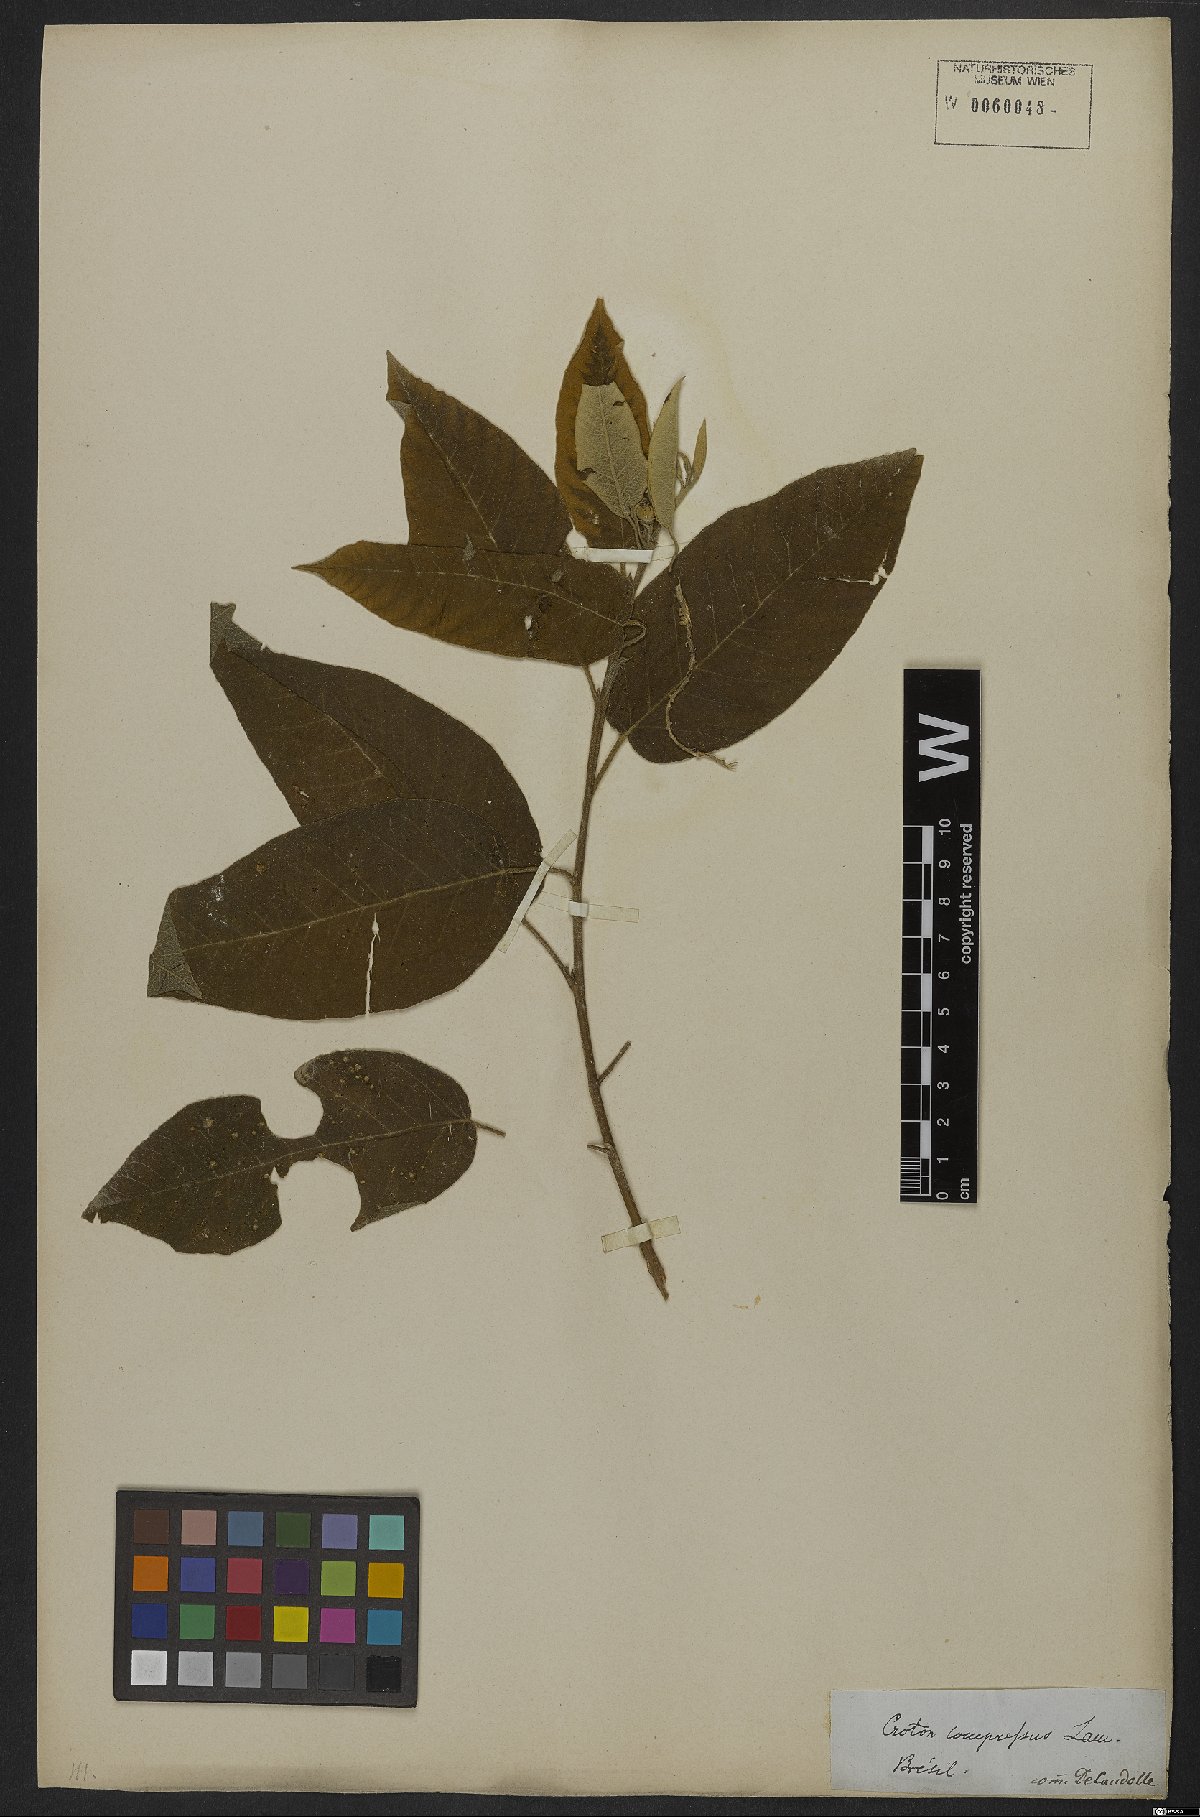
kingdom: Plantae
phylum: Tracheophyta
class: Magnoliopsida
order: Malpighiales
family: Euphorbiaceae
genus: Croton
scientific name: Croton compressus
